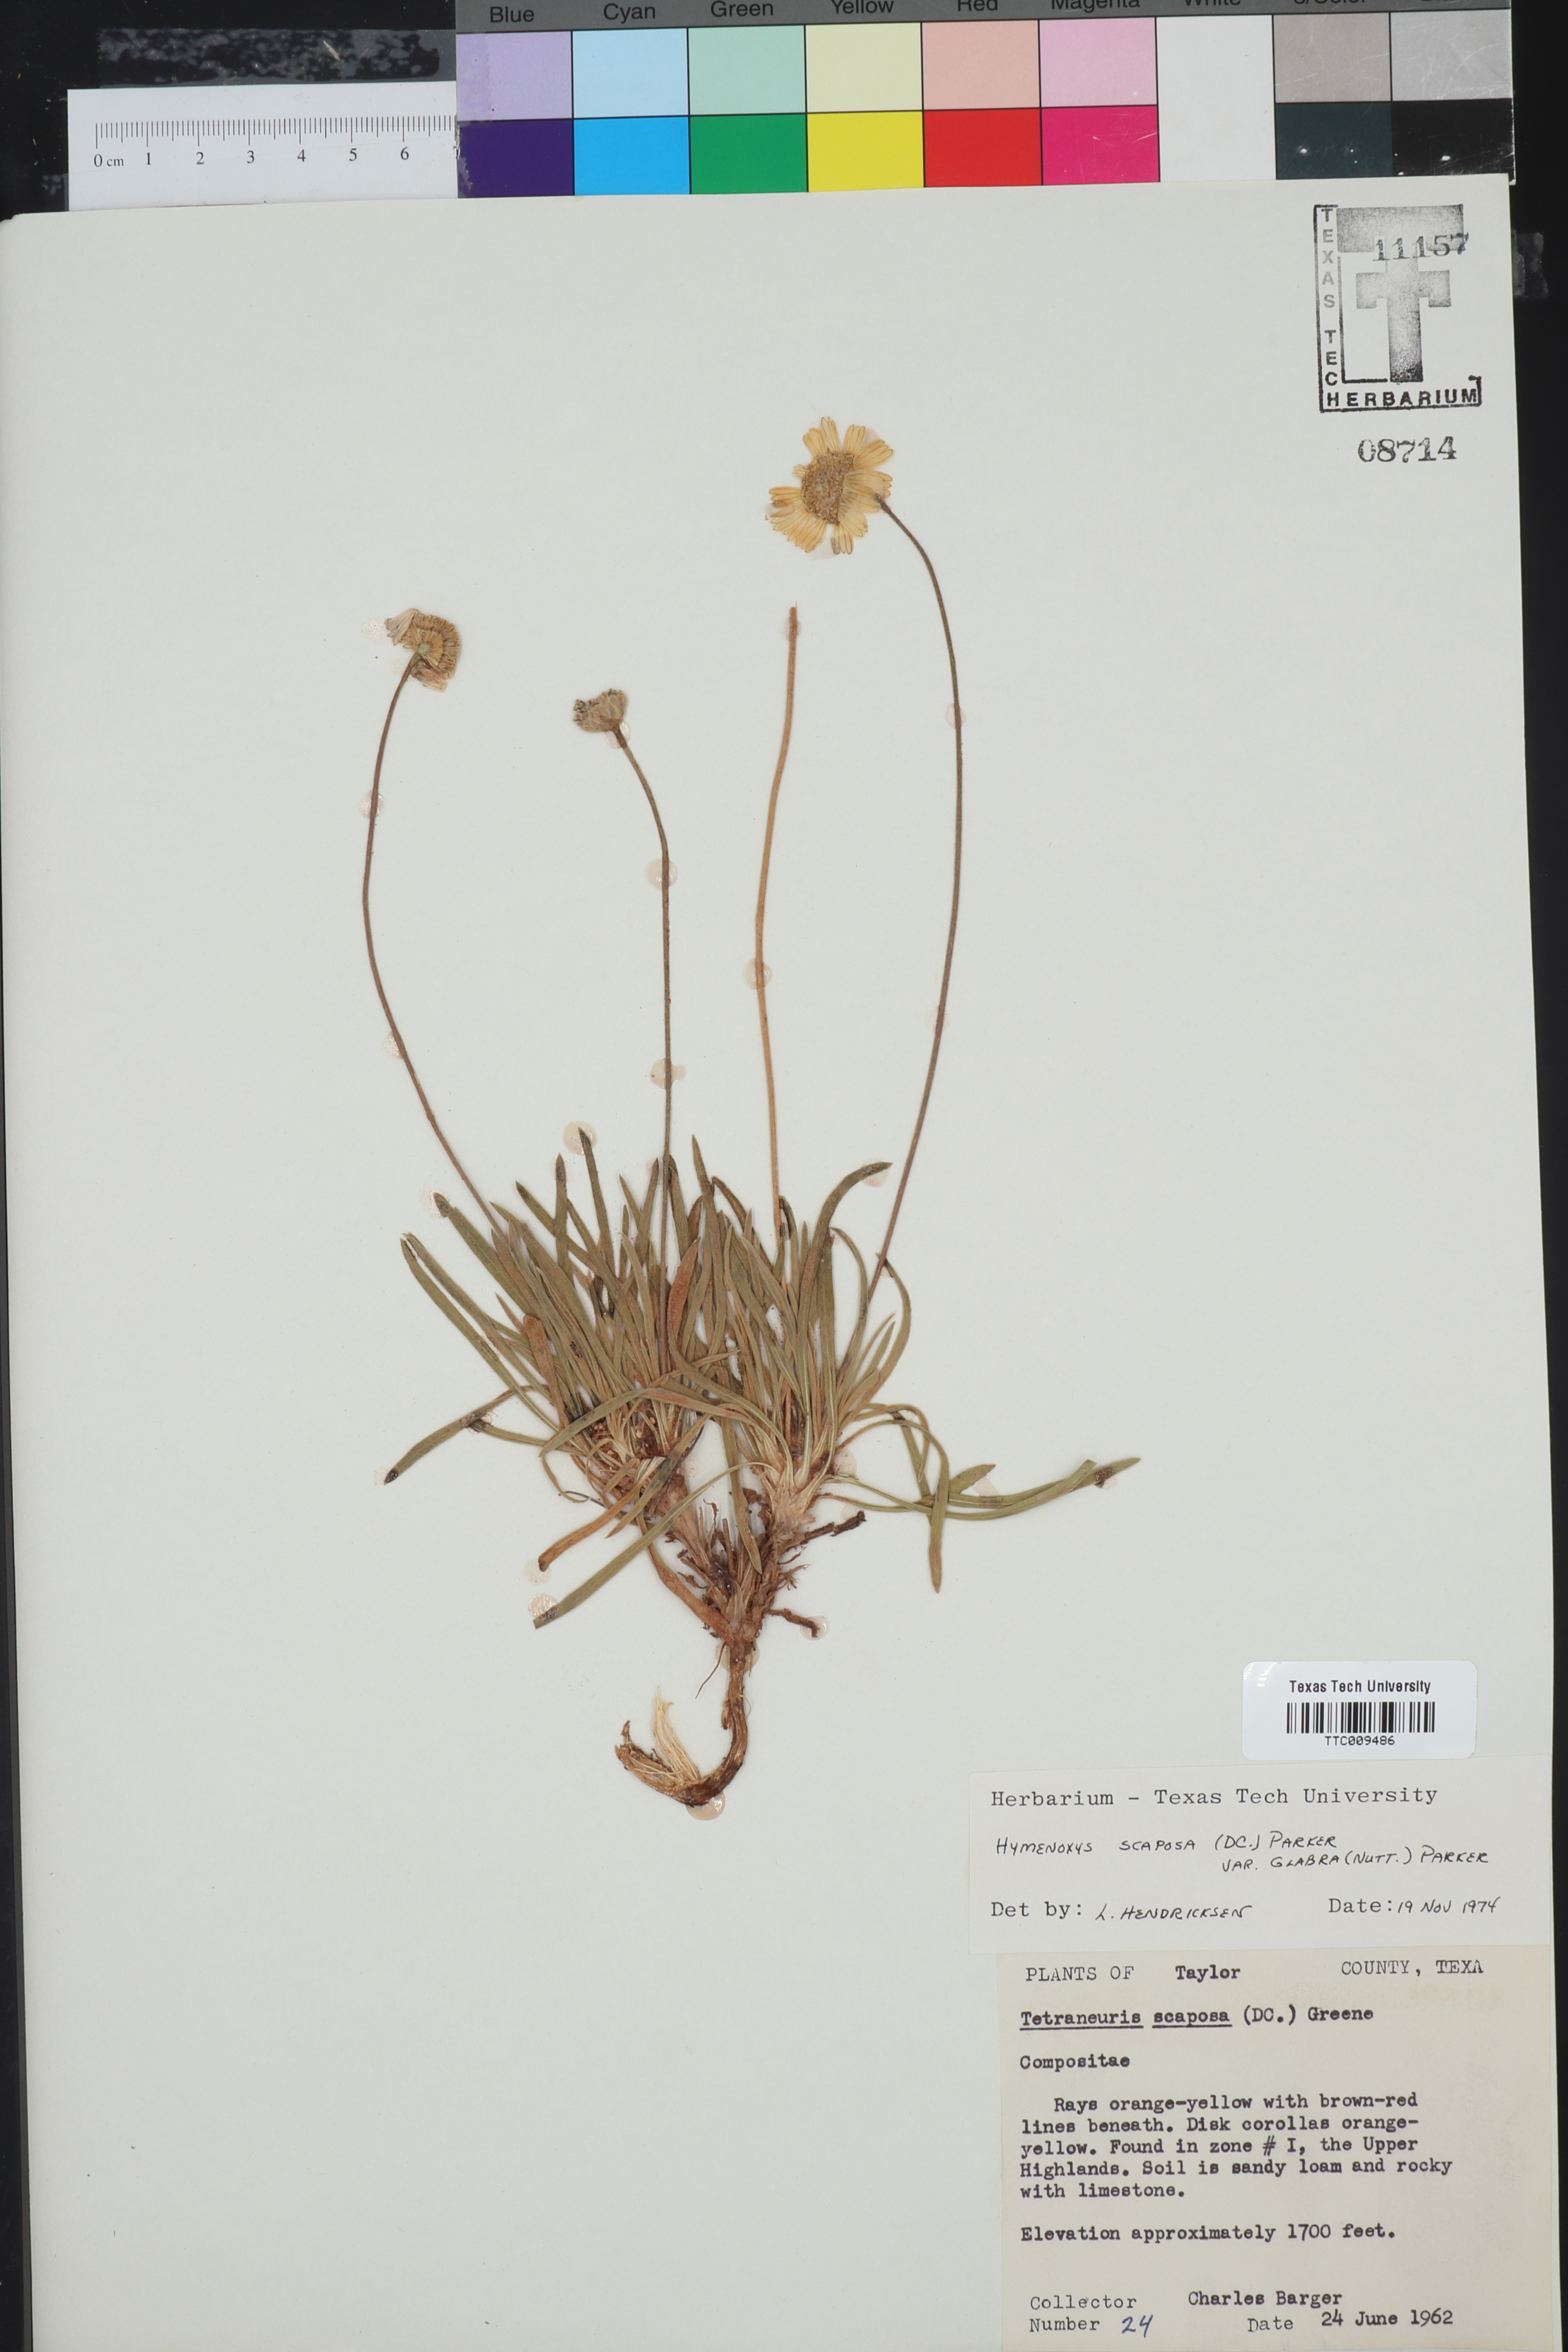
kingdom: Plantae
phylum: Tracheophyta
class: Magnoliopsida
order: Asterales
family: Asteraceae
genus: Tetraneuris
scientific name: Tetraneuris scaposa
